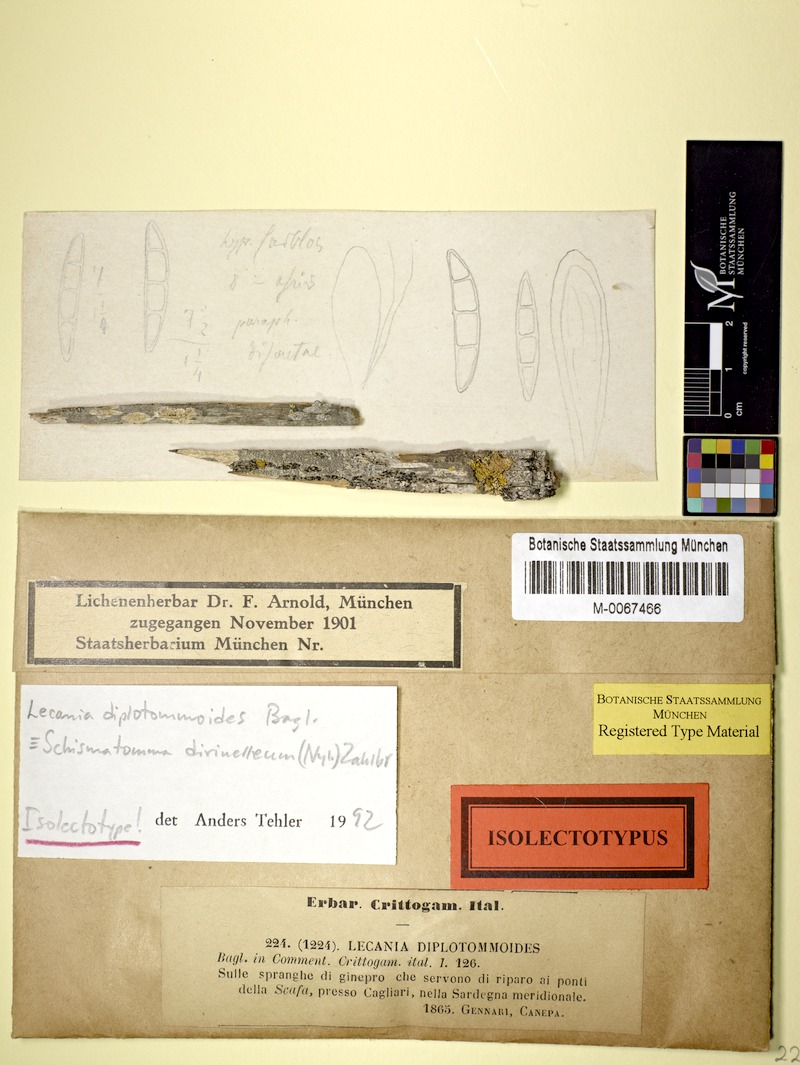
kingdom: Fungi
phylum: Ascomycota
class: Arthoniomycetes
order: Arthoniales
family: Roccellaceae
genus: Diromma
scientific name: Diromma dirinellum
